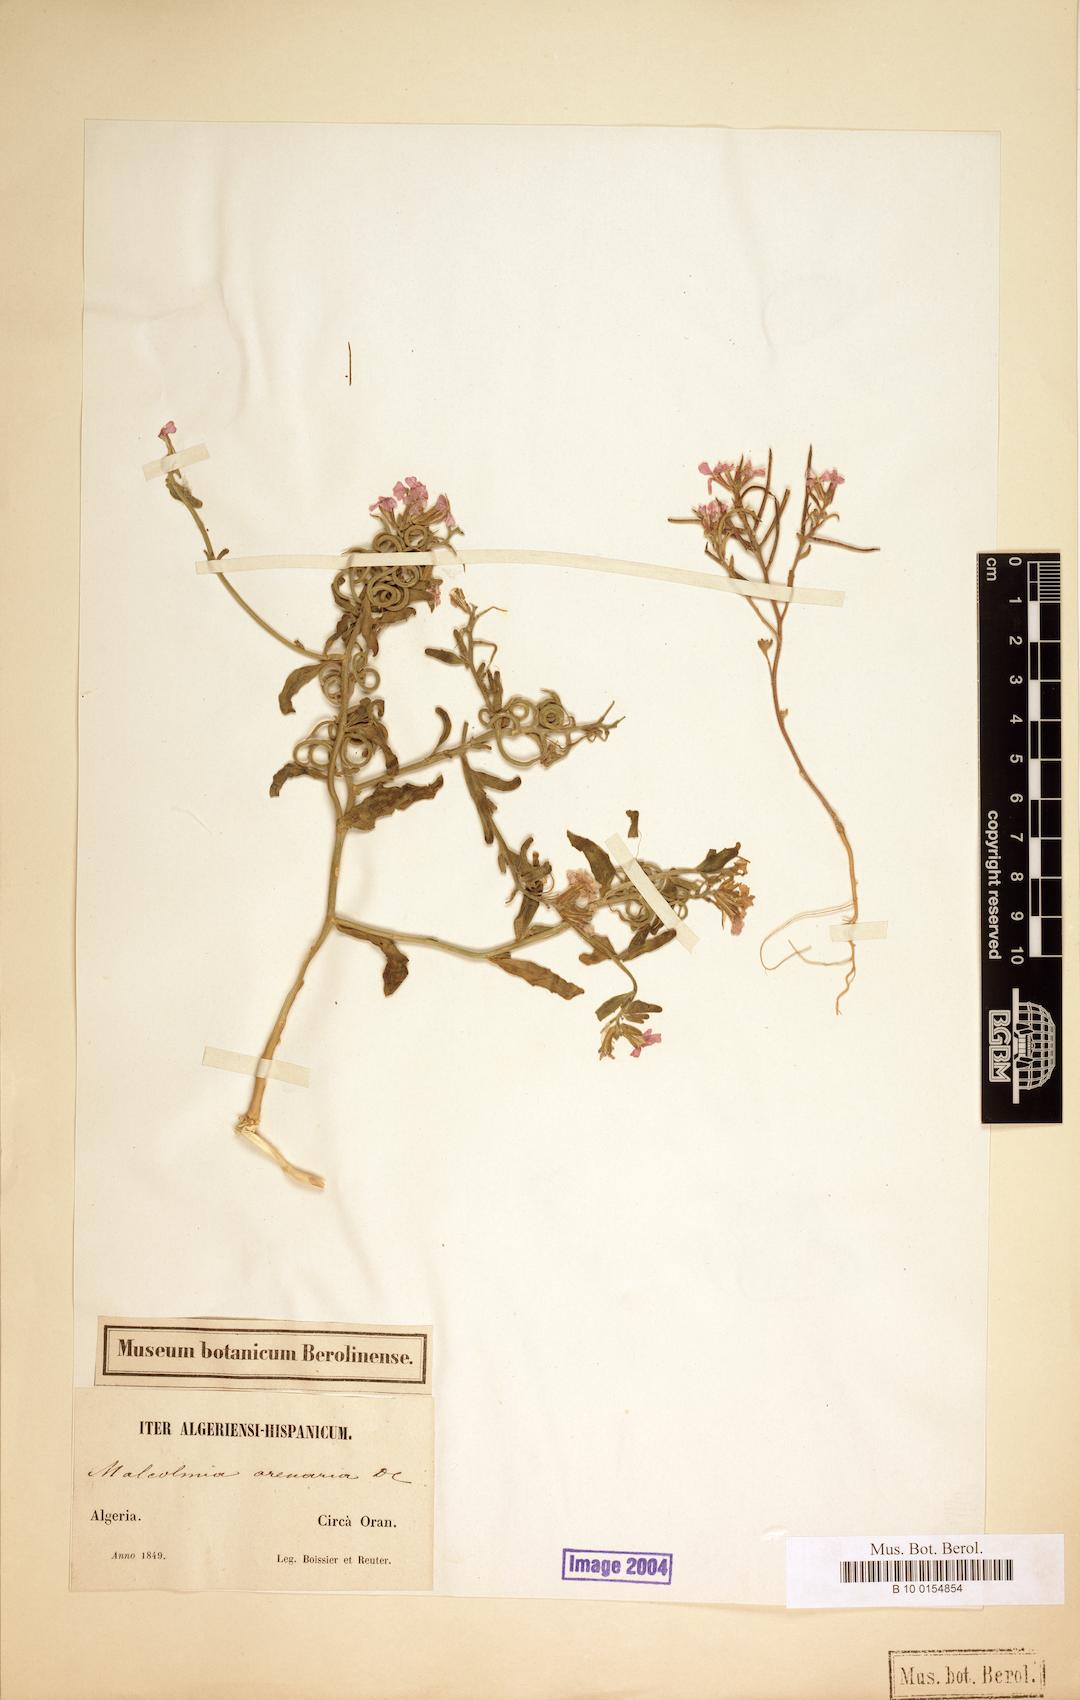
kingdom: Plantae
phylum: Tracheophyta
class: Magnoliopsida
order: Brassicales
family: Brassicaceae
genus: Marcuskochia
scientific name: Marcuskochia arenaria
